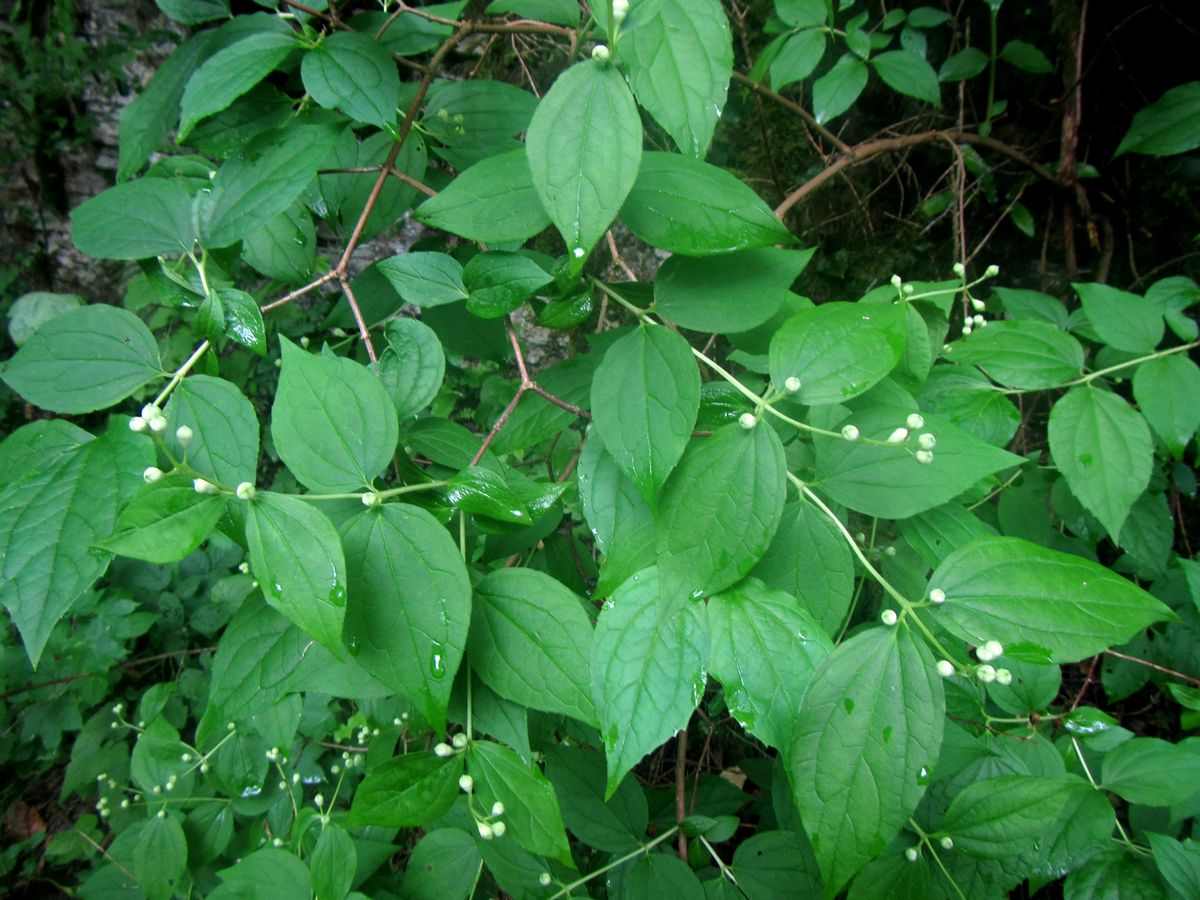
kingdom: Plantae
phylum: Tracheophyta
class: Magnoliopsida
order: Cornales
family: Hydrangeaceae
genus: Philadelphus
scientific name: Philadelphus coronarius
